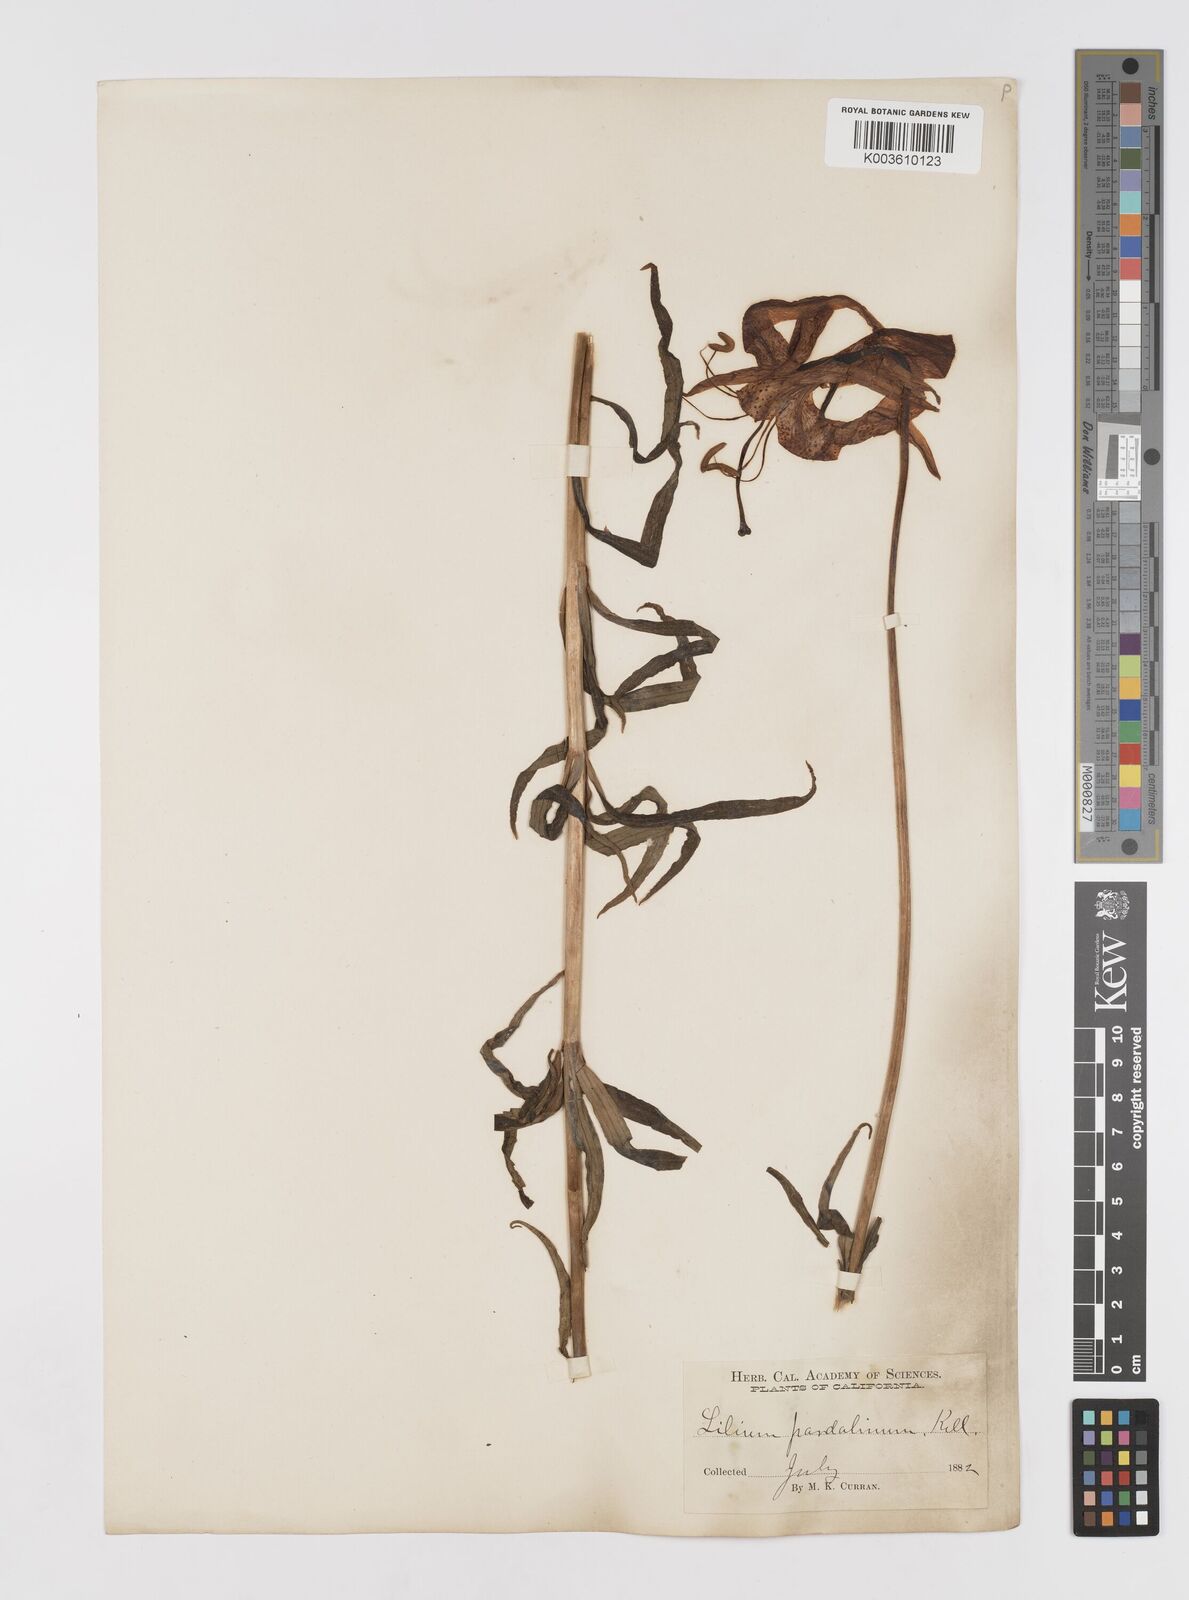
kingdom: Plantae
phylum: Tracheophyta
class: Liliopsida
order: Liliales
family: Liliaceae
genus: Lilium
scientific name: Lilium pardalinum
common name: Panther lily
